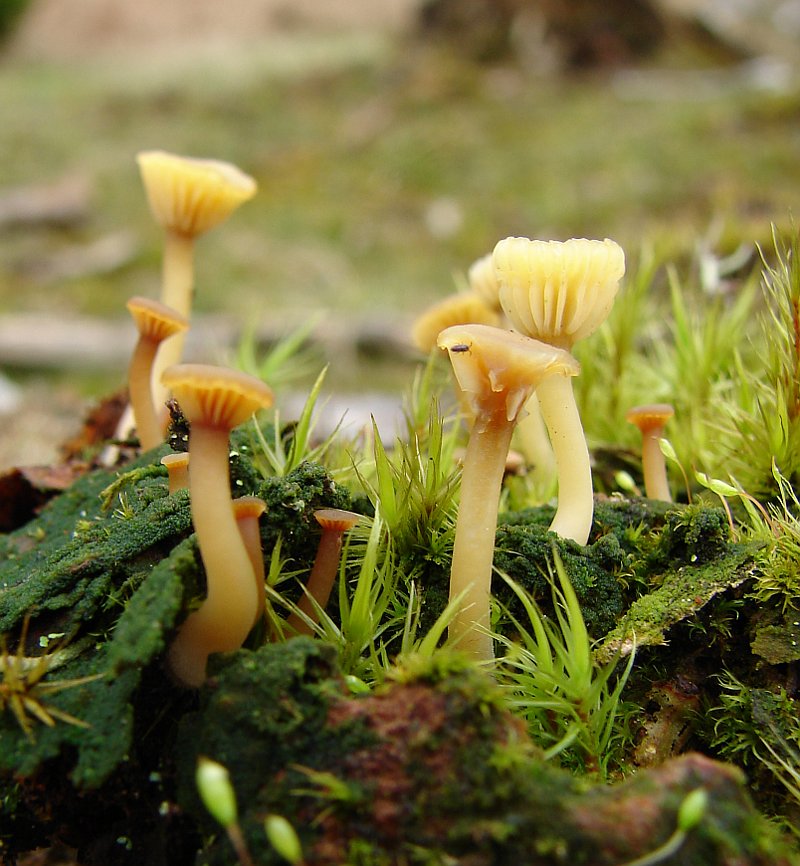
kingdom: Fungi
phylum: Basidiomycota
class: Agaricomycetes
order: Agaricales
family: Hygrophoraceae
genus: Lichenomphalia
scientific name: Lichenomphalia umbellifera
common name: tørve-lavhat
